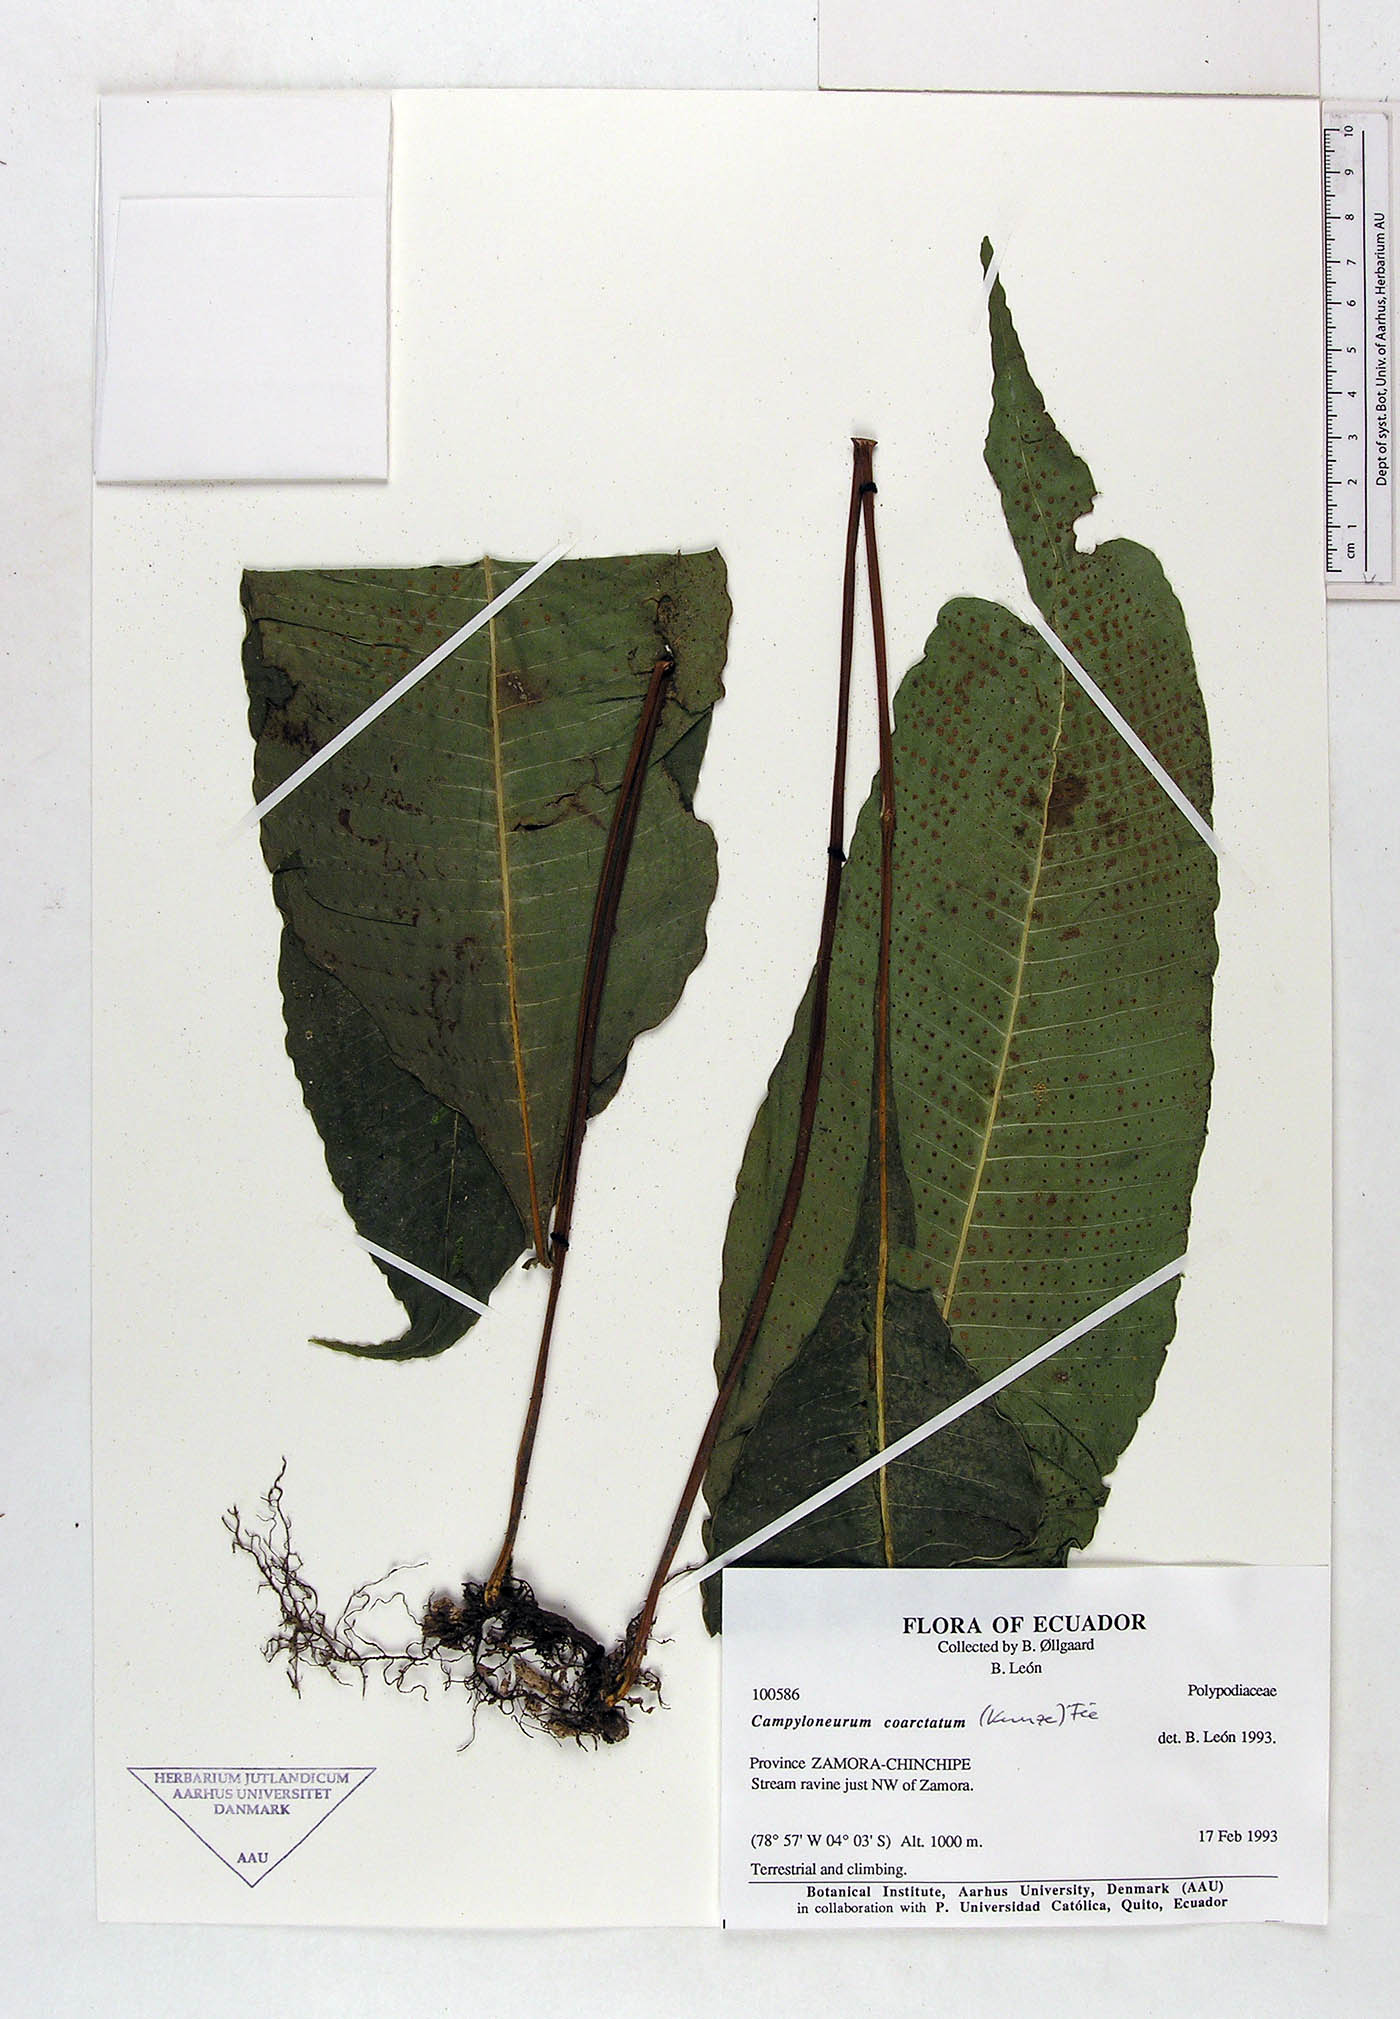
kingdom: Plantae
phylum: Tracheophyta
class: Polypodiopsida
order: Polypodiales
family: Polypodiaceae
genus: Campyloneurum
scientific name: Campyloneurum coarctatum
